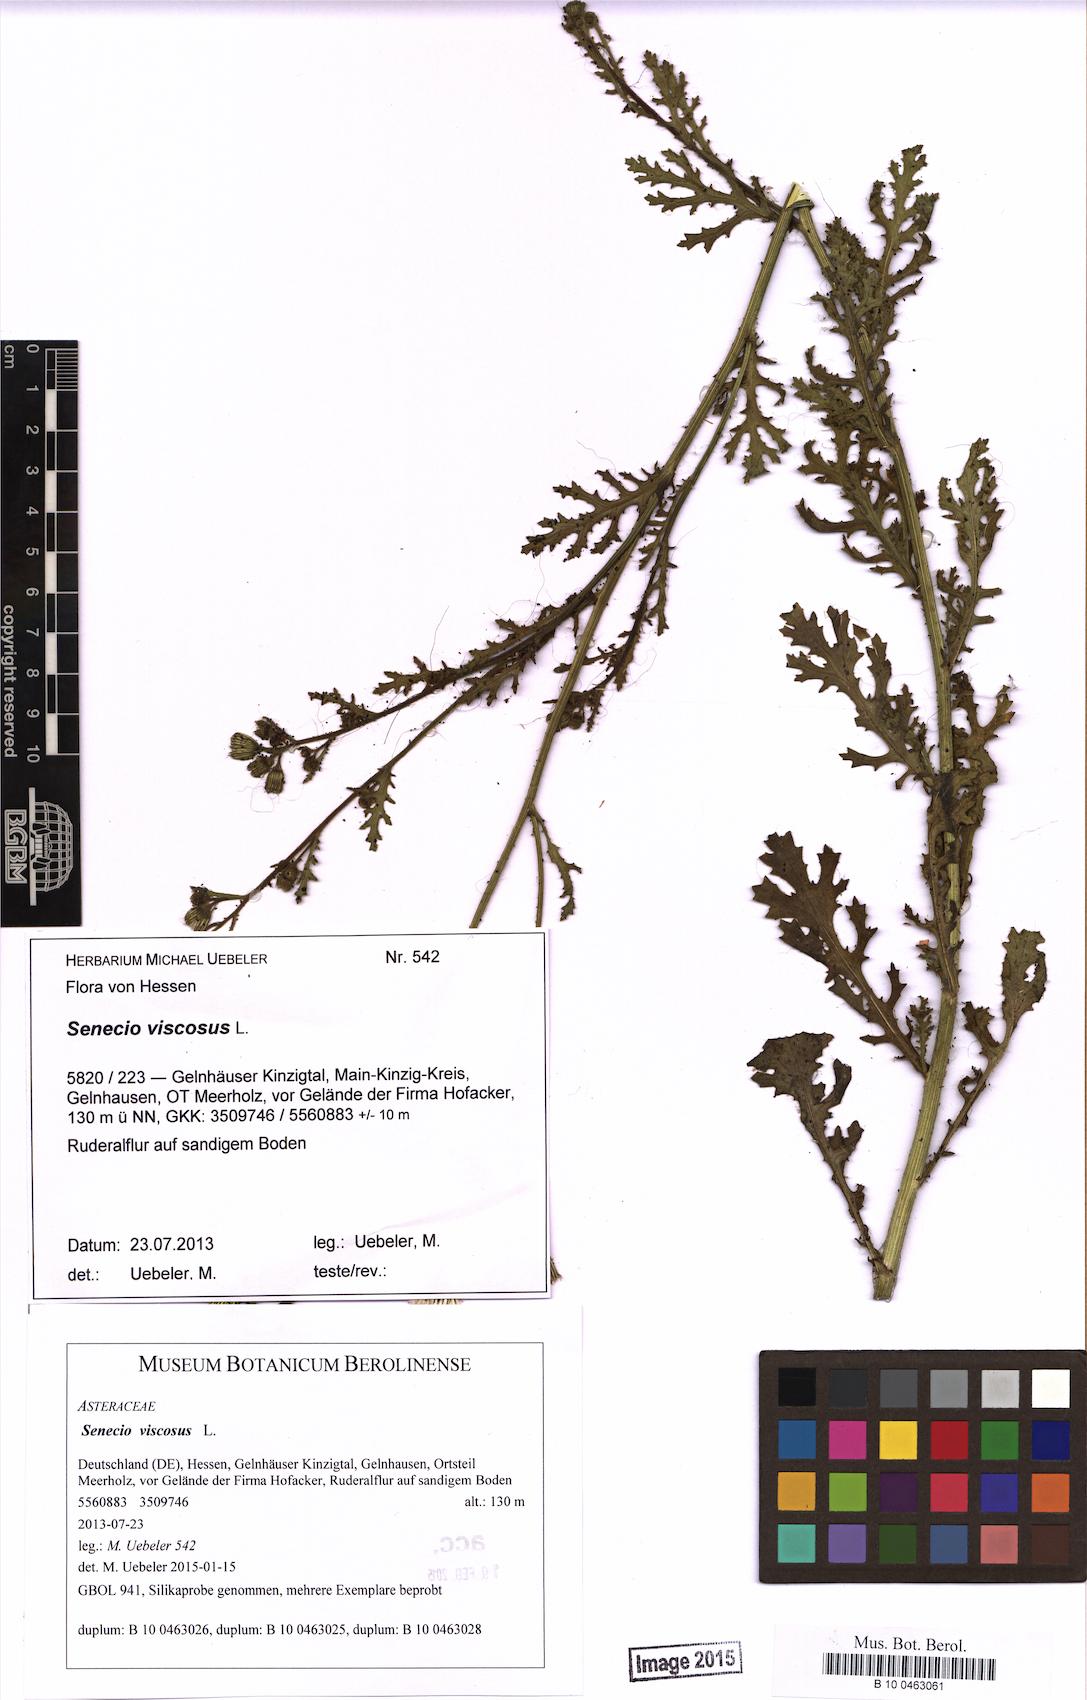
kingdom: Plantae
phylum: Tracheophyta
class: Magnoliopsida
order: Asterales
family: Asteraceae
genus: Senecio
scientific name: Senecio viscosus
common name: Sticky groundsel
